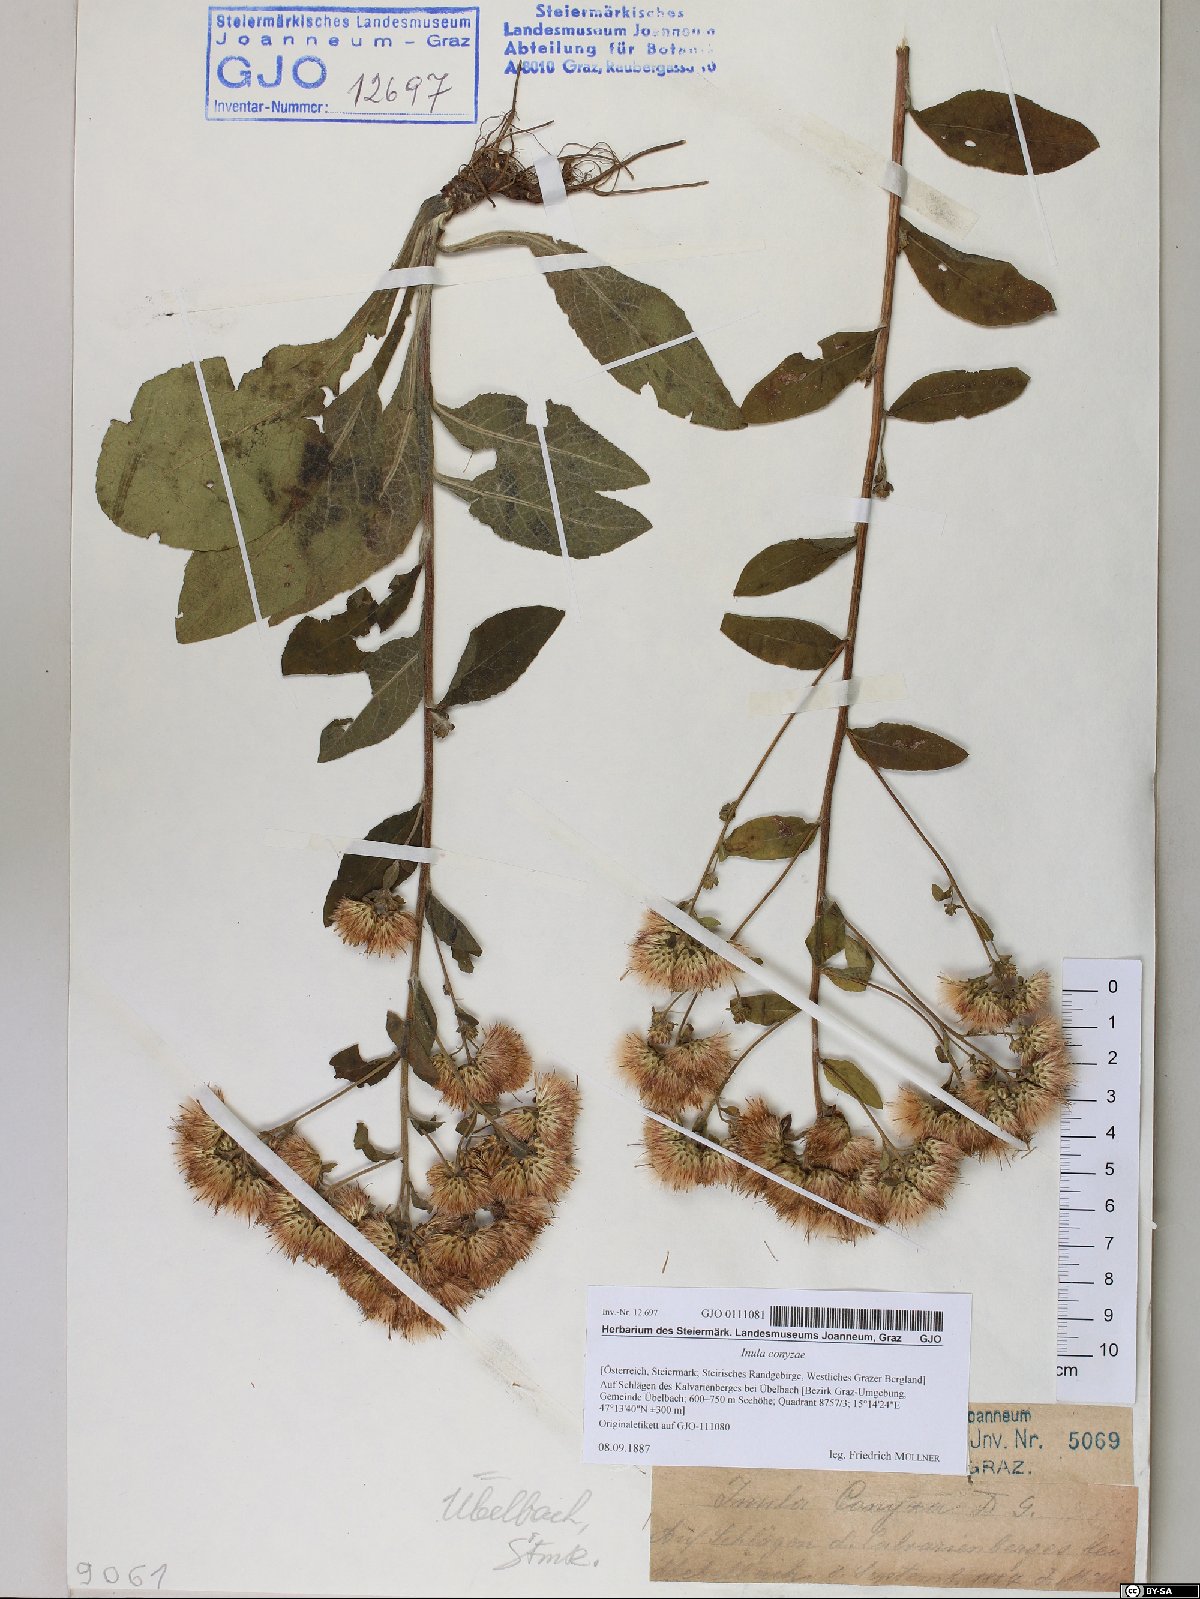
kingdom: Plantae
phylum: Tracheophyta
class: Magnoliopsida
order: Asterales
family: Asteraceae
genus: Pentanema
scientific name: Pentanema squarrosum
